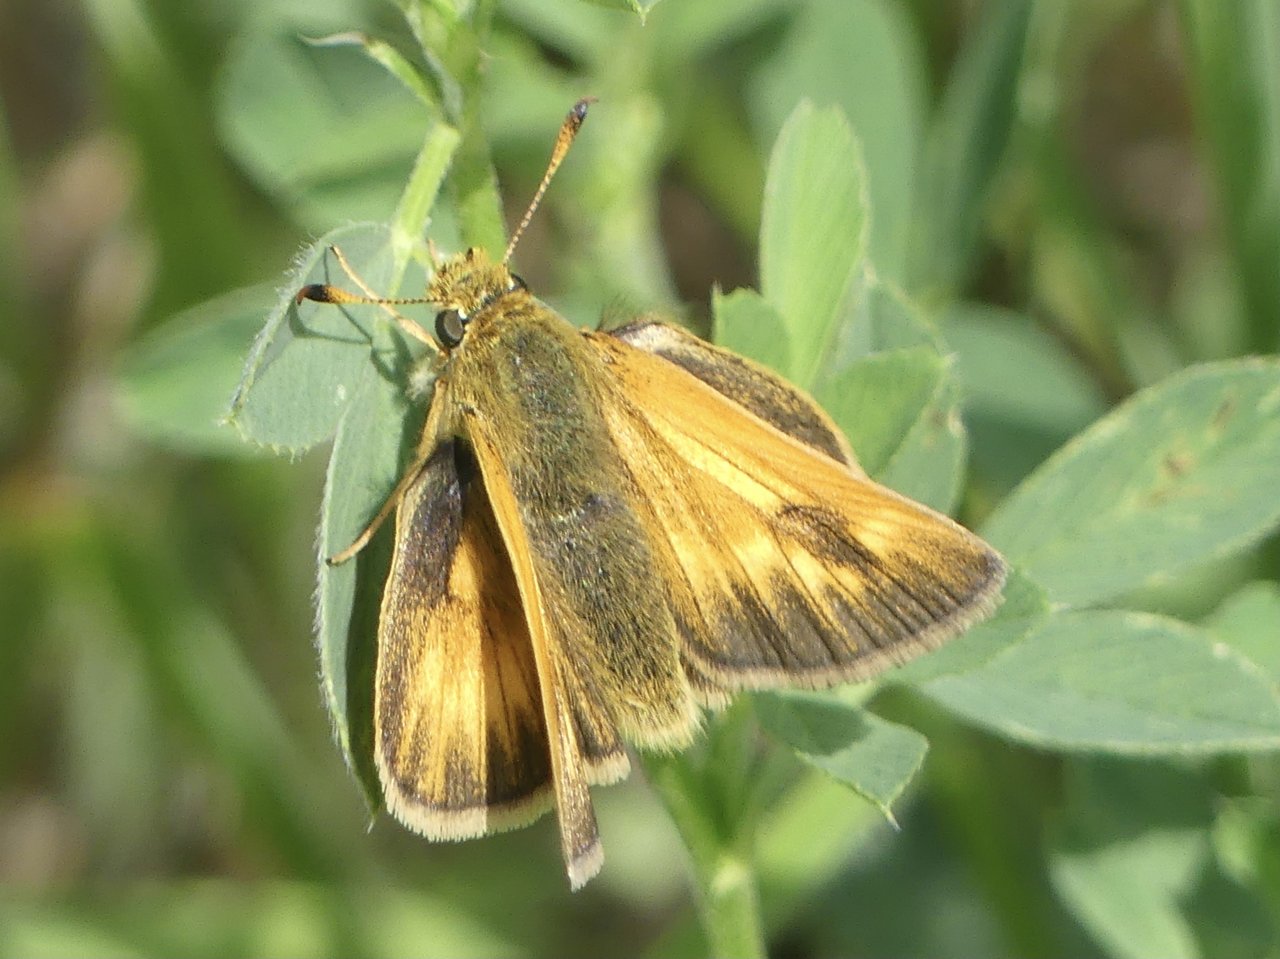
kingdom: Animalia
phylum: Arthropoda
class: Insecta
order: Lepidoptera
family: Hesperiidae
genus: Ochlodes
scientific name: Ochlodes sylvanoides
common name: Woodland Skipper
